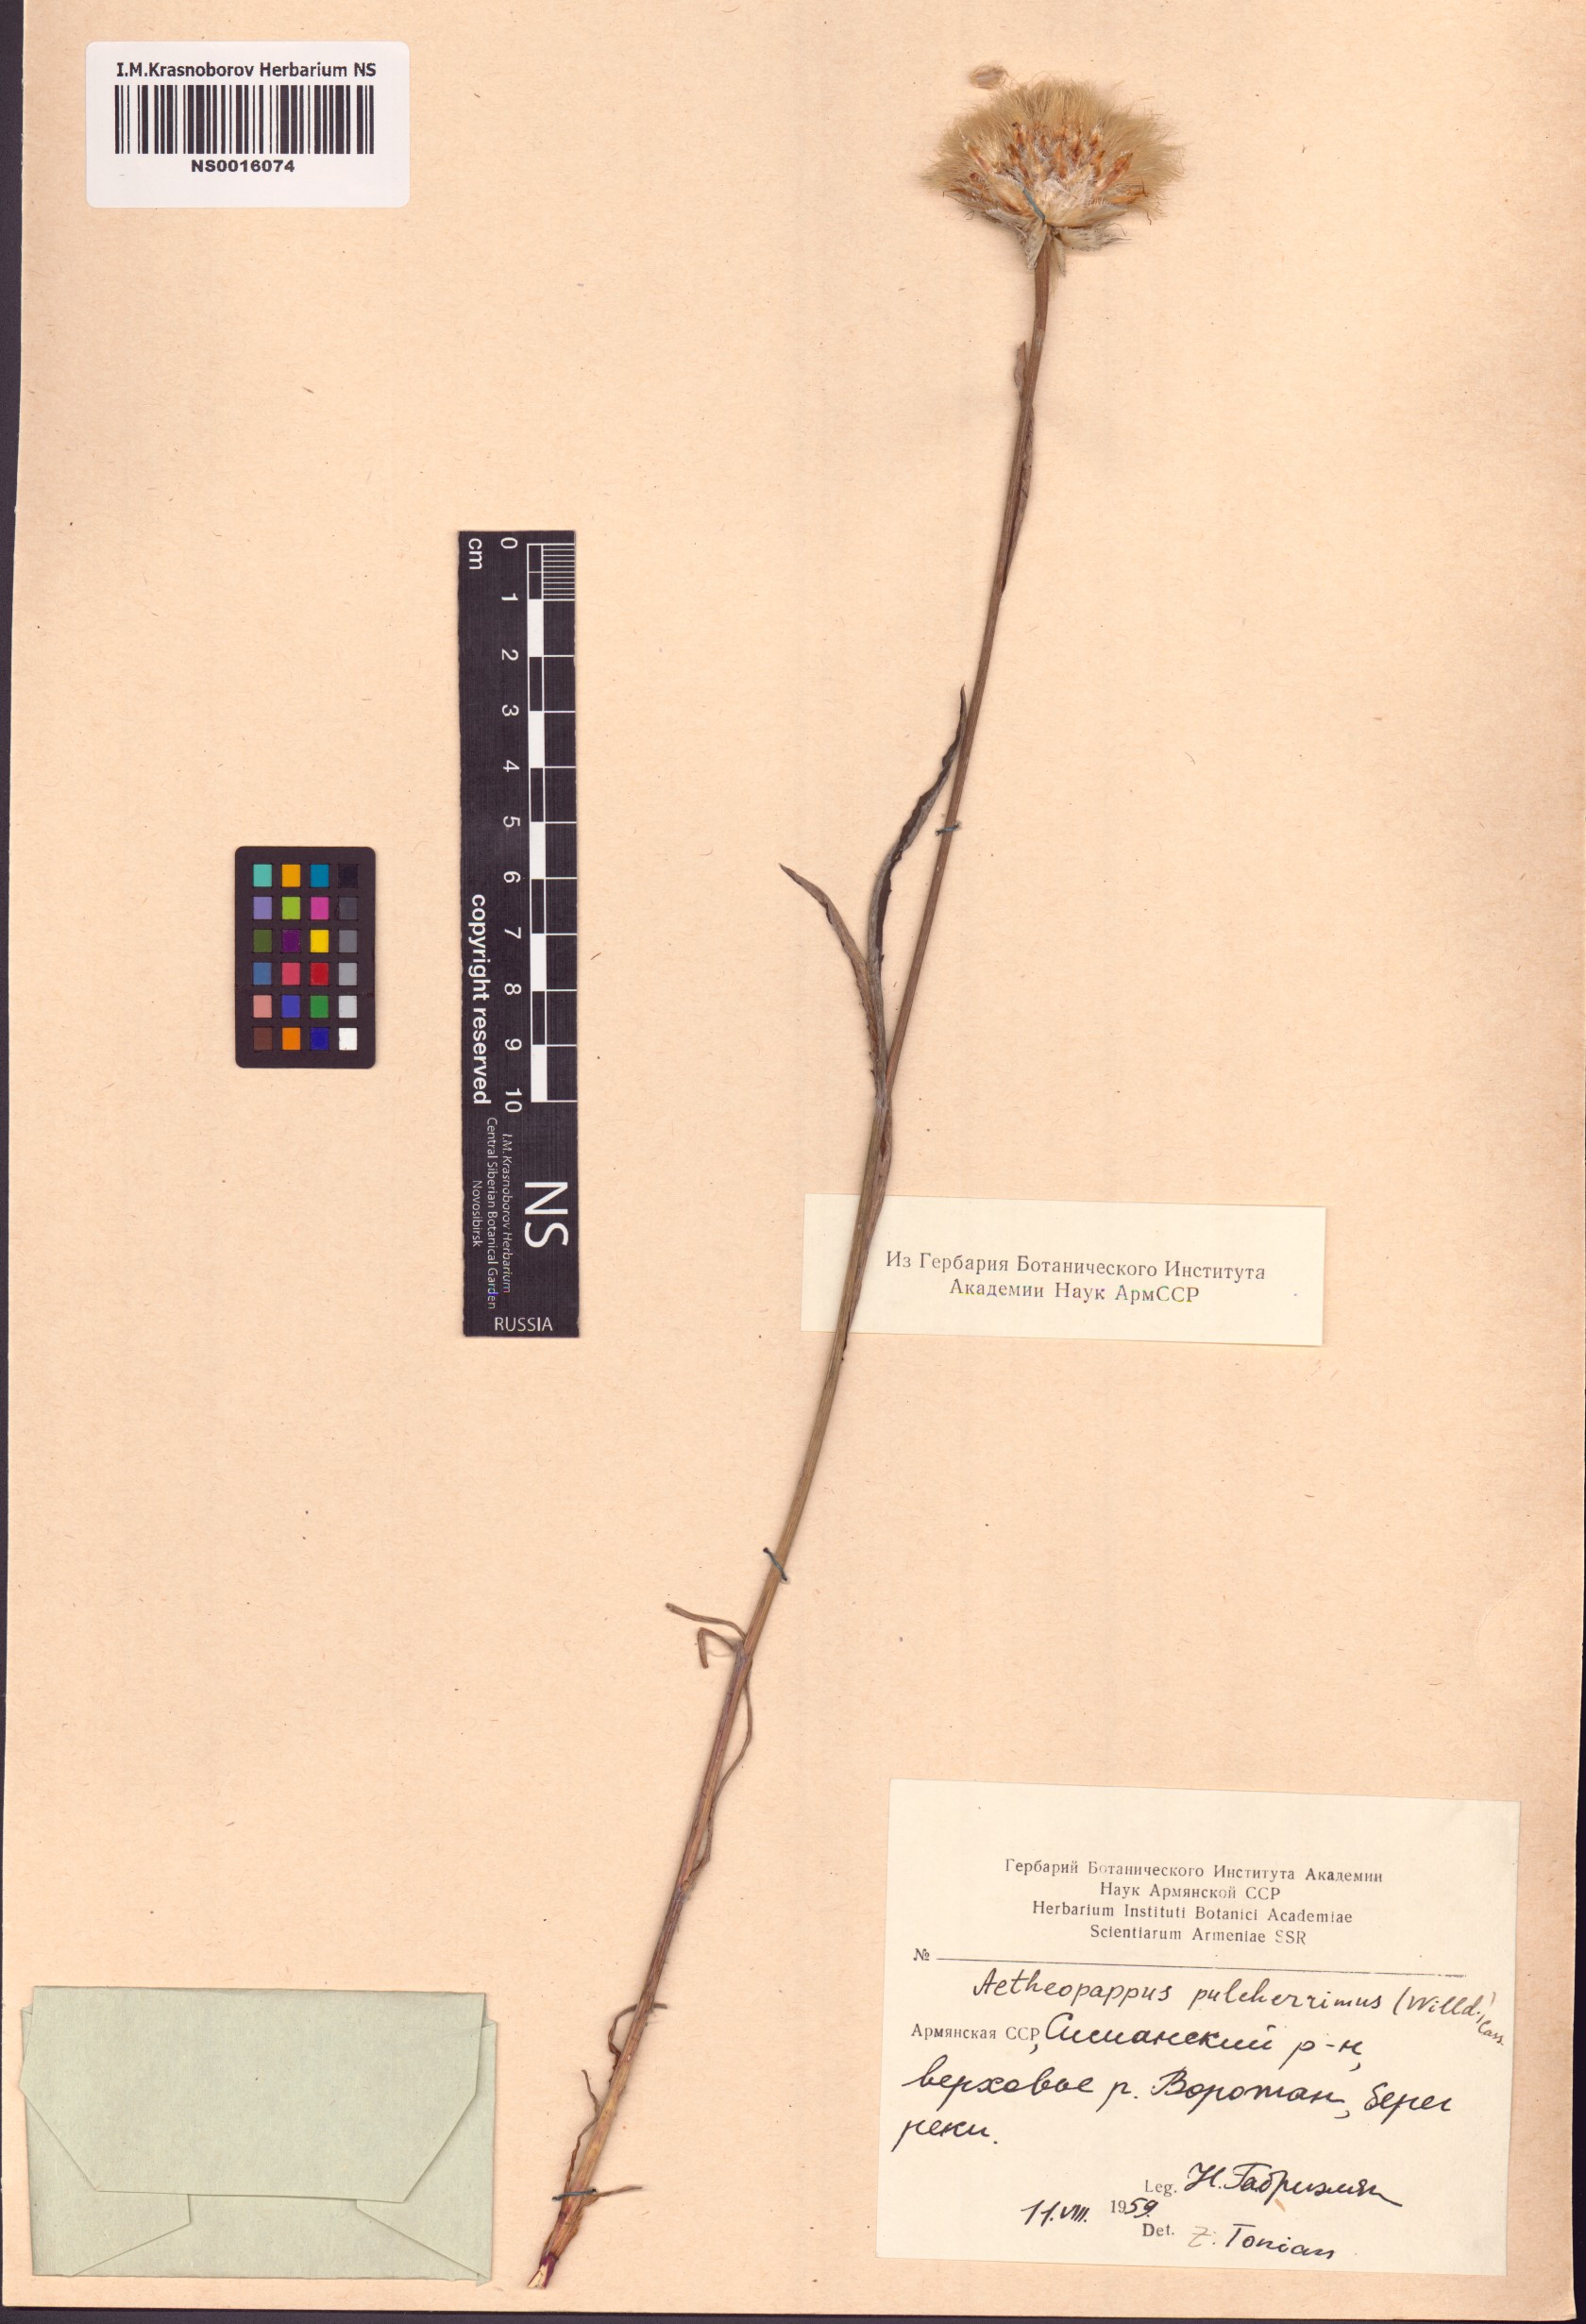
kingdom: Plantae
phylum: Tracheophyta
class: Magnoliopsida
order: Asterales
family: Asteraceae
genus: Psephellus
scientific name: Psephellus pulcherrimus
